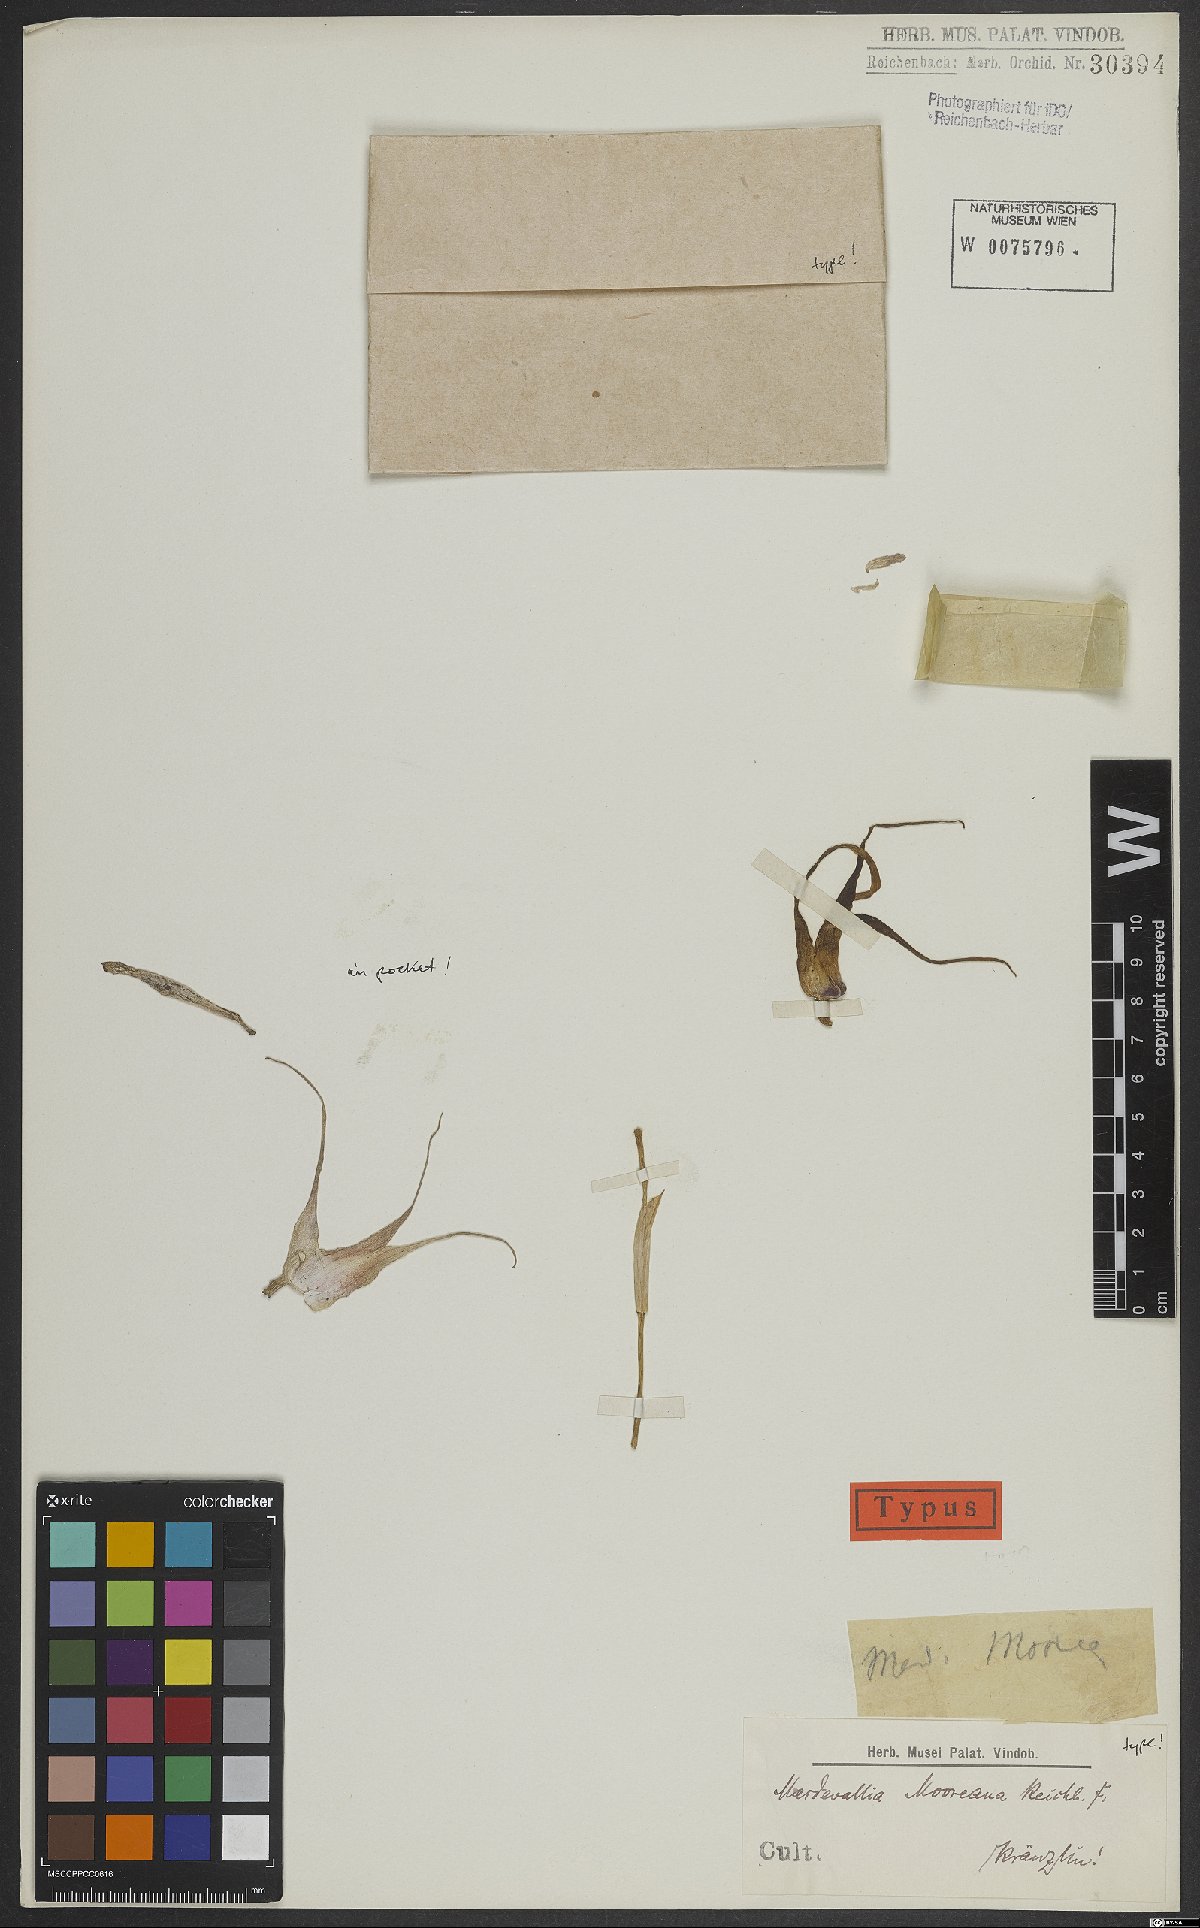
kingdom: Plantae
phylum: Tracheophyta
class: Liliopsida
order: Asparagales
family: Orchidaceae
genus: Masdevallia
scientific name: Masdevallia mooreana
